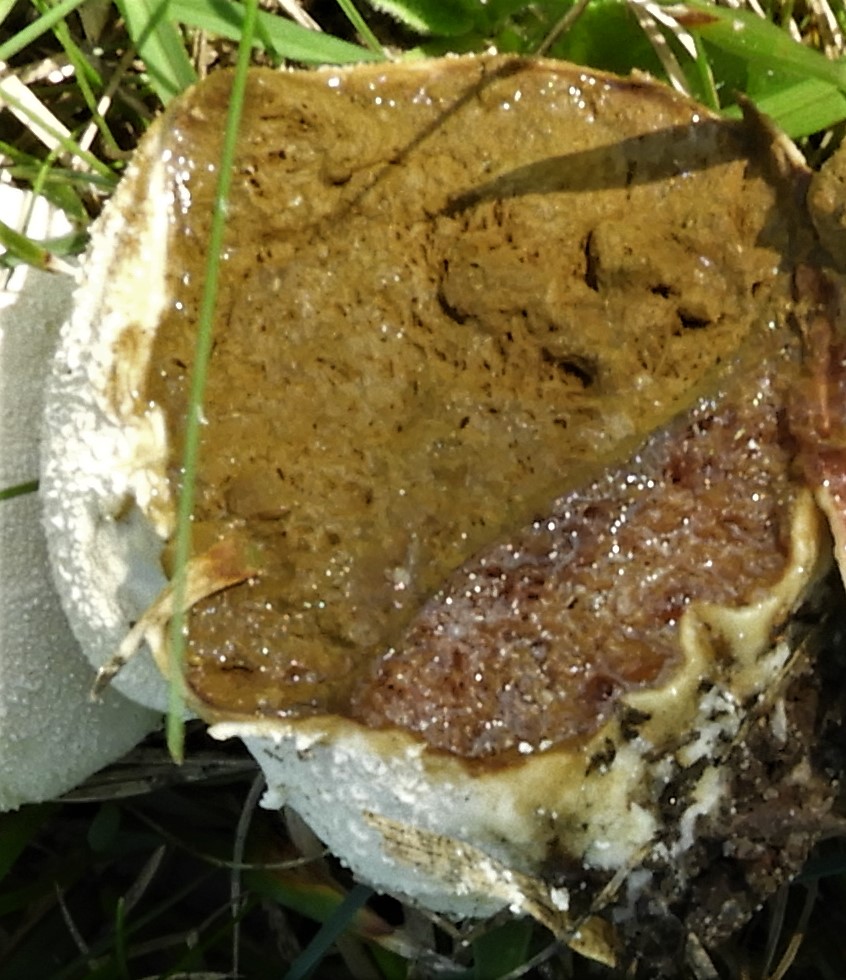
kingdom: Fungi
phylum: Basidiomycota
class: Agaricomycetes
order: Agaricales
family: Lycoperdaceae
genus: Lycoperdon
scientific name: Lycoperdon pratense
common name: flad støvbold
